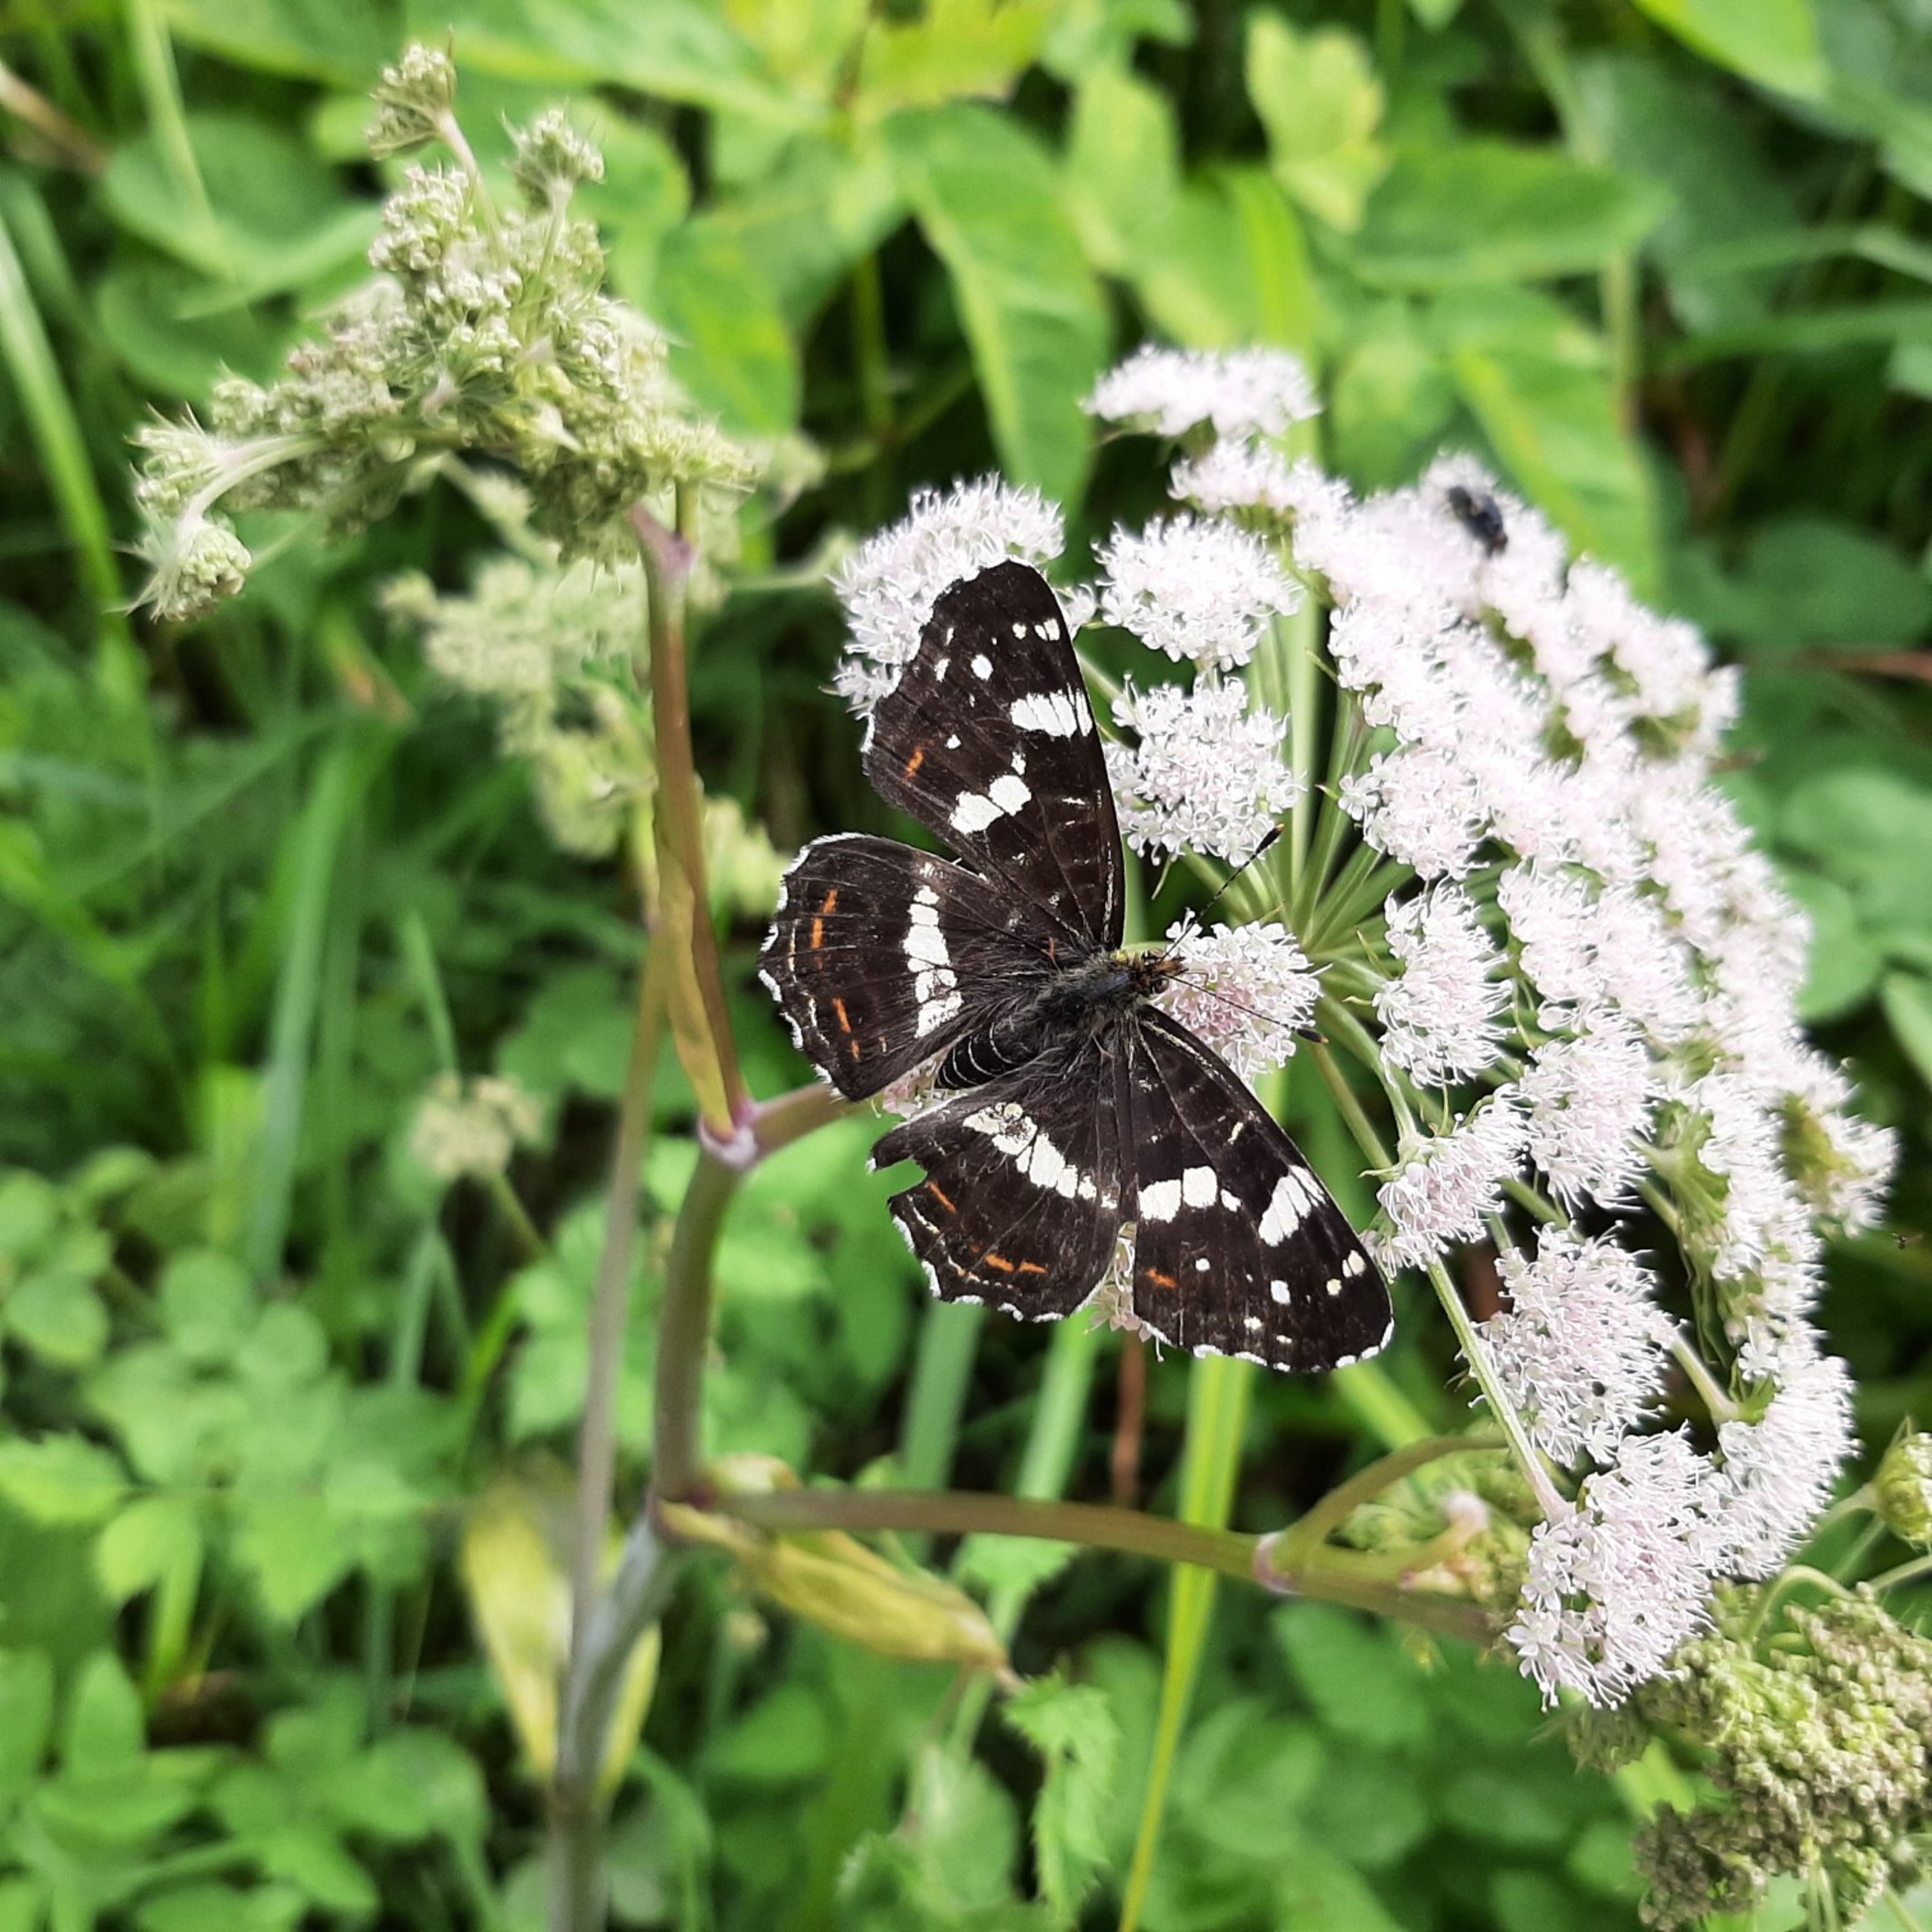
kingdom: Animalia
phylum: Arthropoda
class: Insecta
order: Lepidoptera
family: Nymphalidae
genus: Araschnia
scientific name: Araschnia levana
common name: Nældesommerfugl
